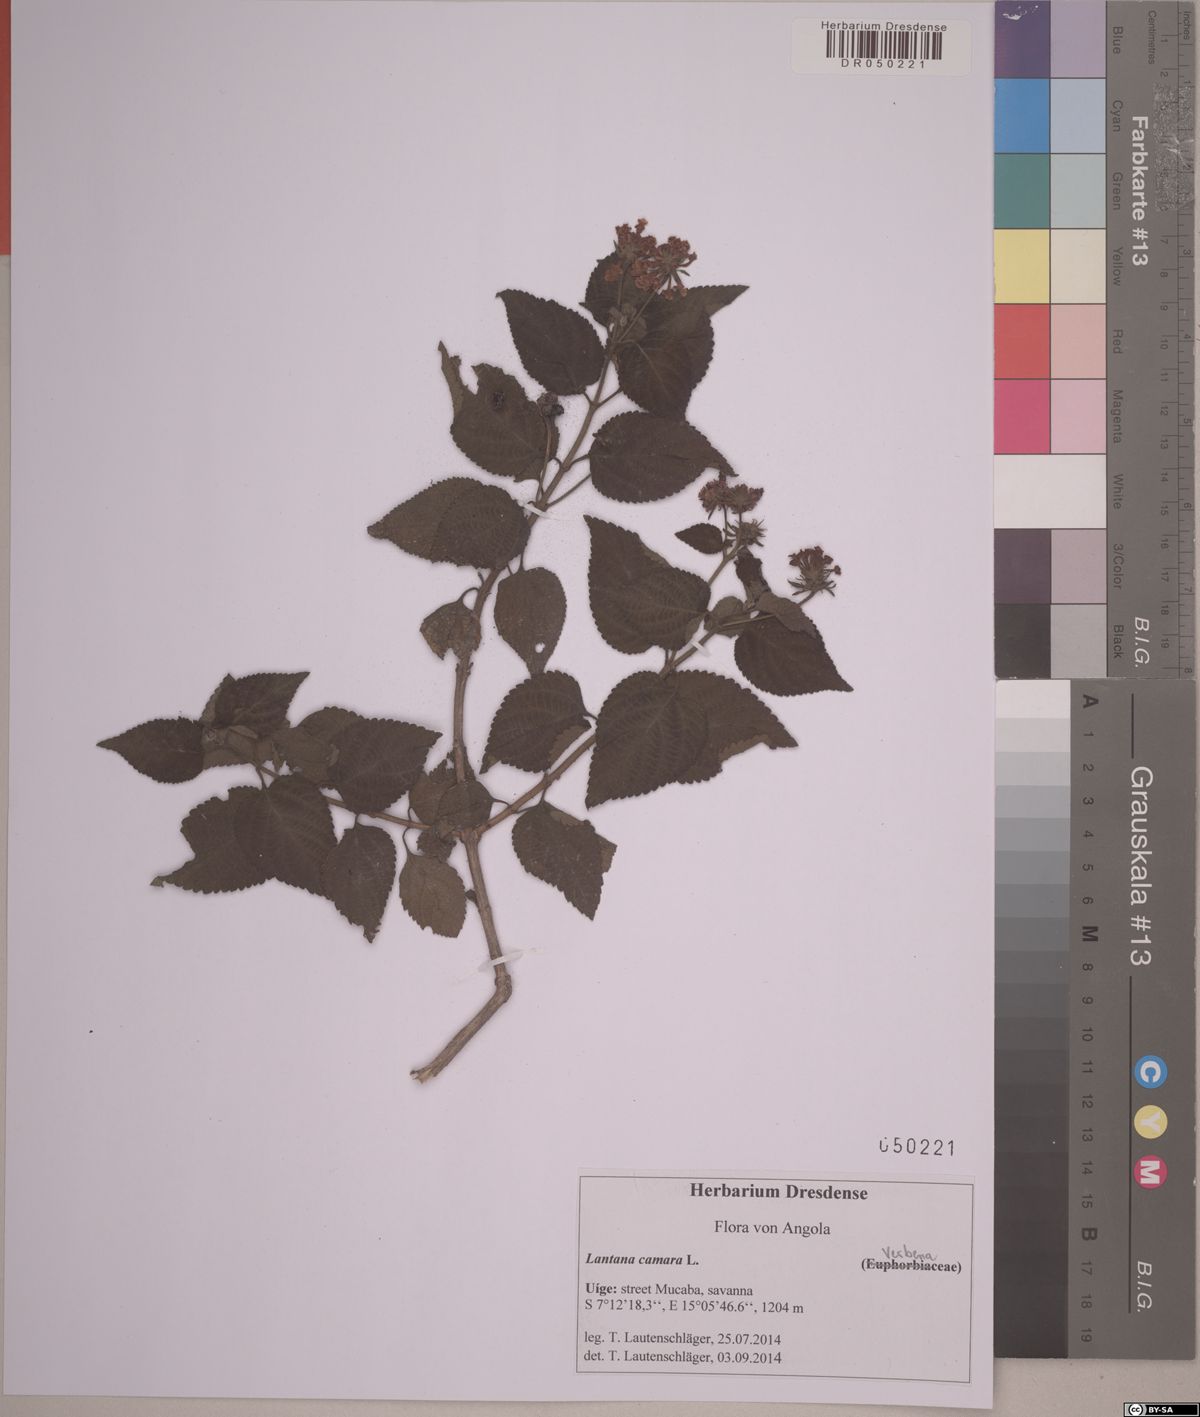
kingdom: Plantae
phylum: Tracheophyta
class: Magnoliopsida
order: Lamiales
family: Verbenaceae
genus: Lantana
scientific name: Lantana camara
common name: Lantana
